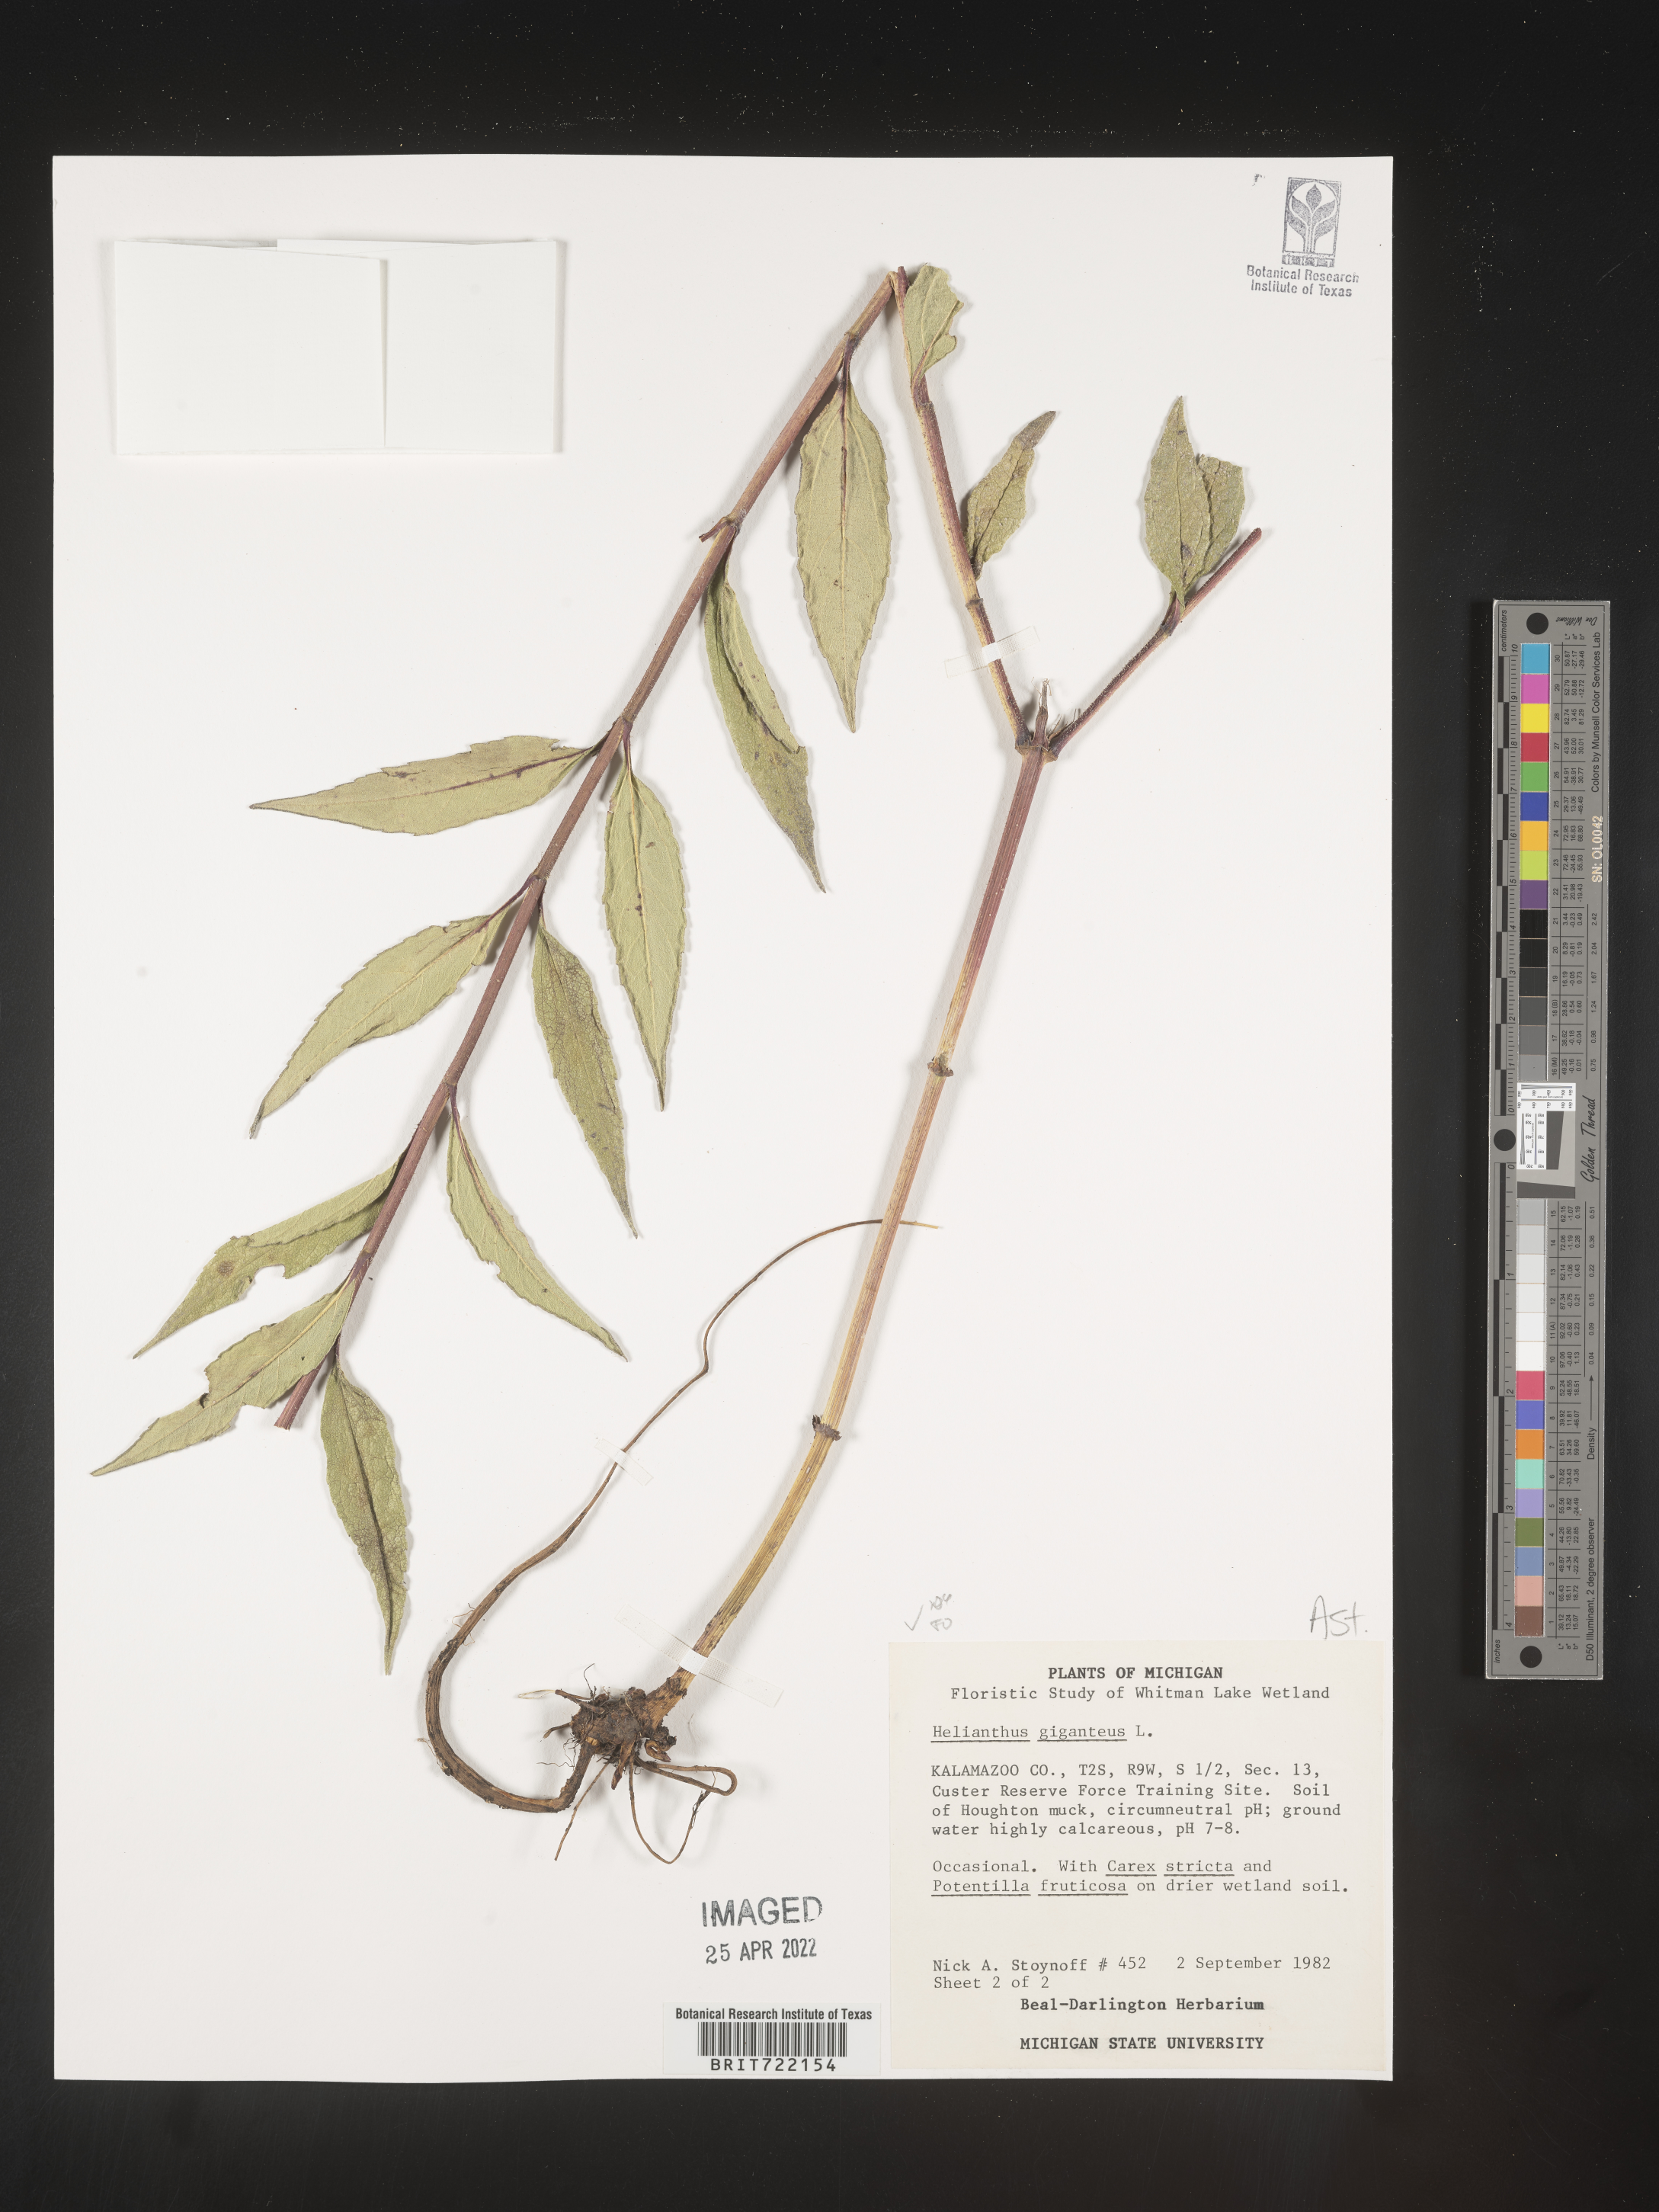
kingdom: Plantae
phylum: Tracheophyta
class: Magnoliopsida
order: Asterales
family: Asteraceae
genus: Helianthus
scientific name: Helianthus giganteus
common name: Giant sunflower
